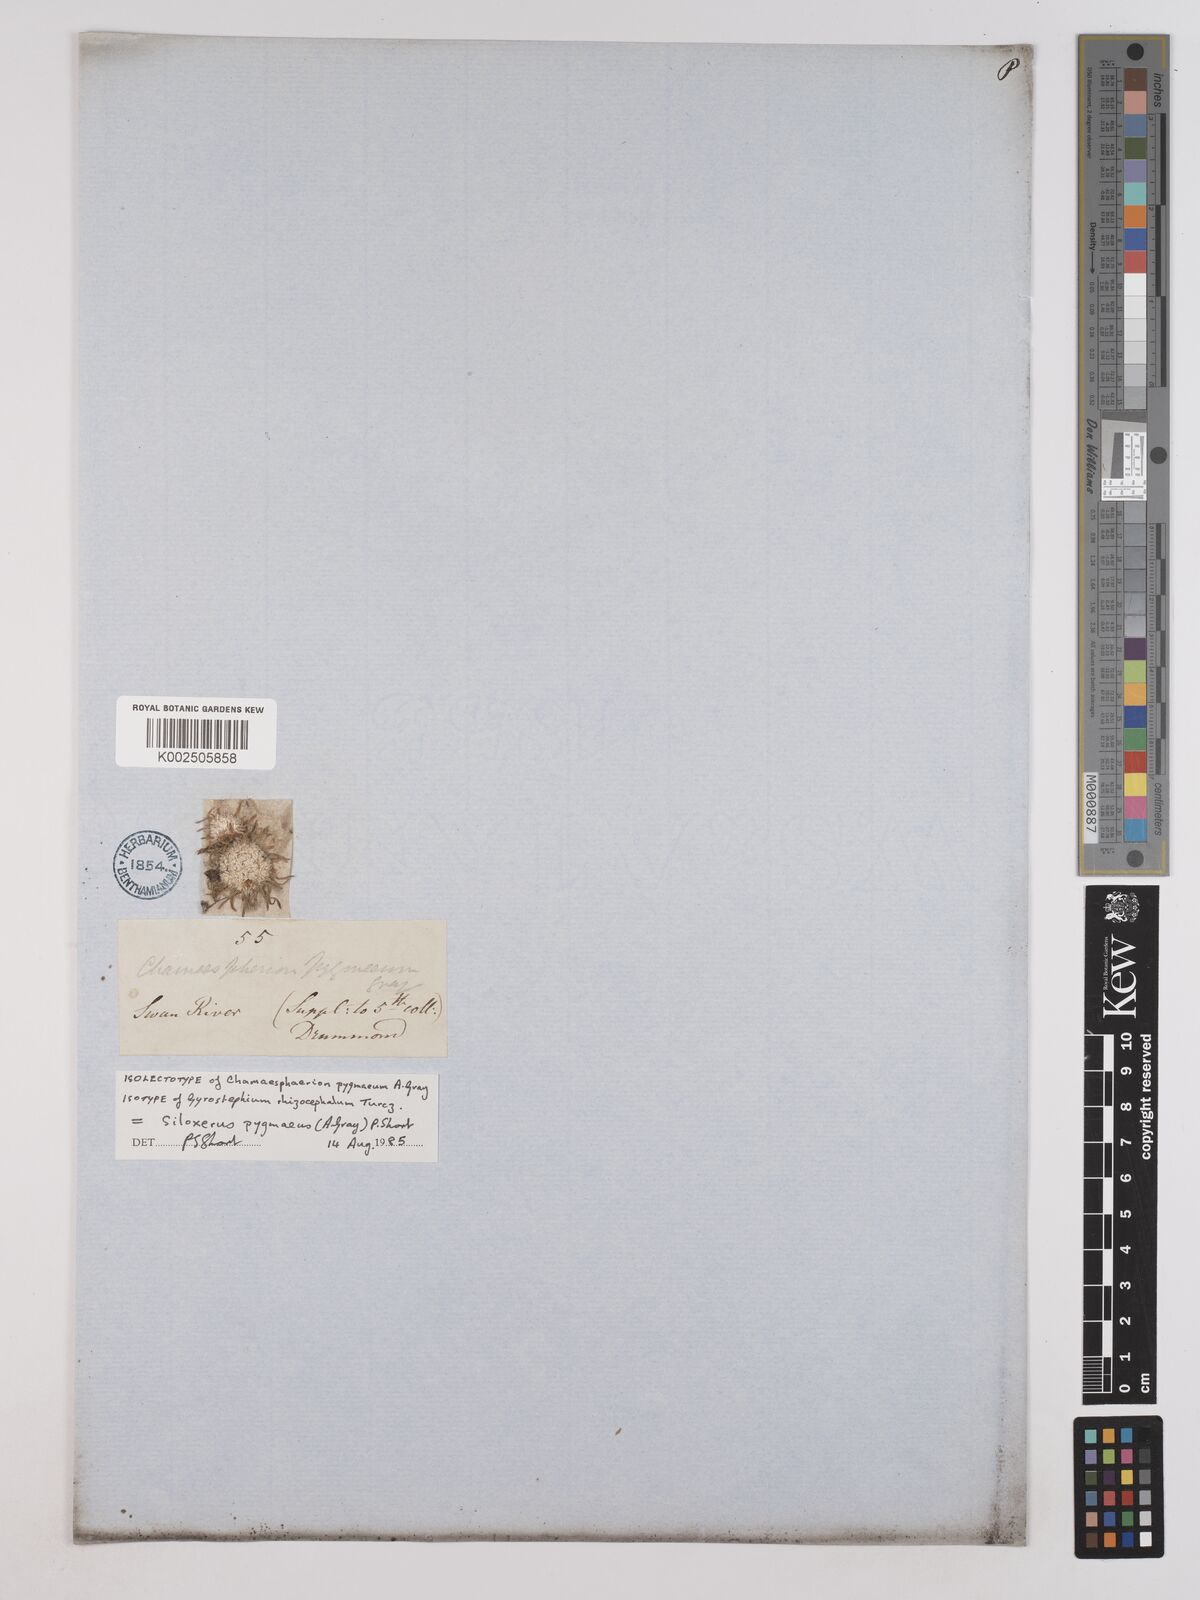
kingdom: Plantae
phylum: Tracheophyta
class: Magnoliopsida
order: Asterales
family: Asteraceae
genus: Siloxerus
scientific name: Siloxerus pygmaeus
